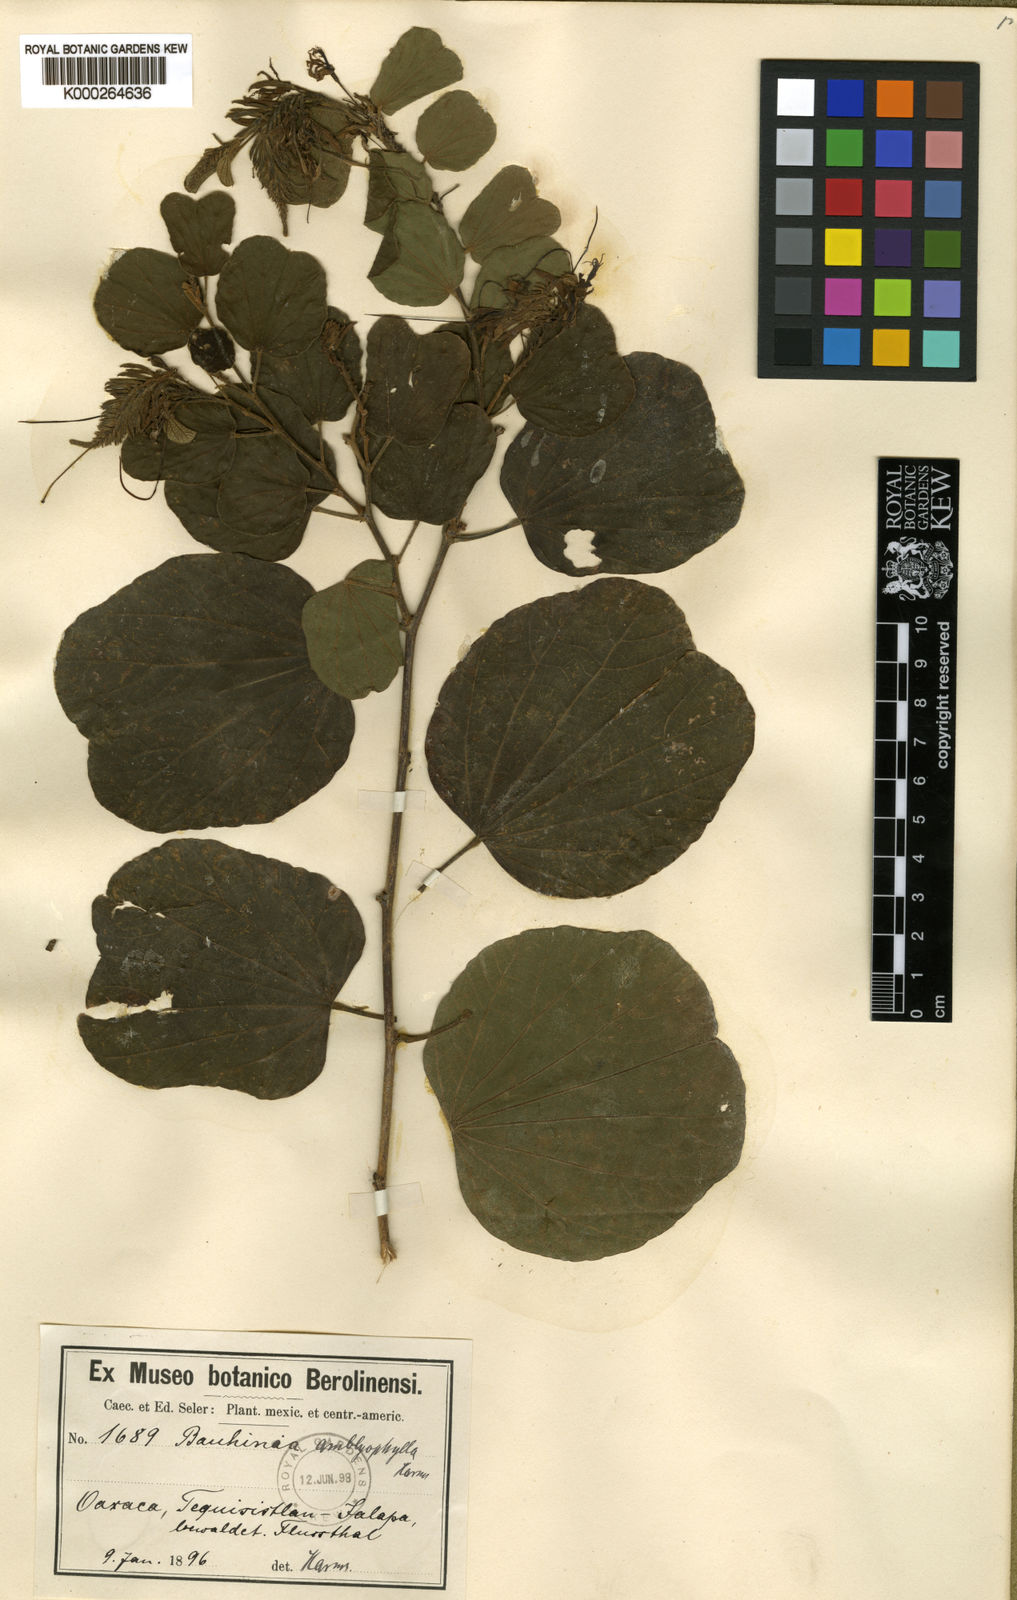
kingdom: Plantae
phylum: Tracheophyta
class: Magnoliopsida
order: Fabales
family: Fabaceae
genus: Bauhinia
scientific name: Bauhinia divaricata
